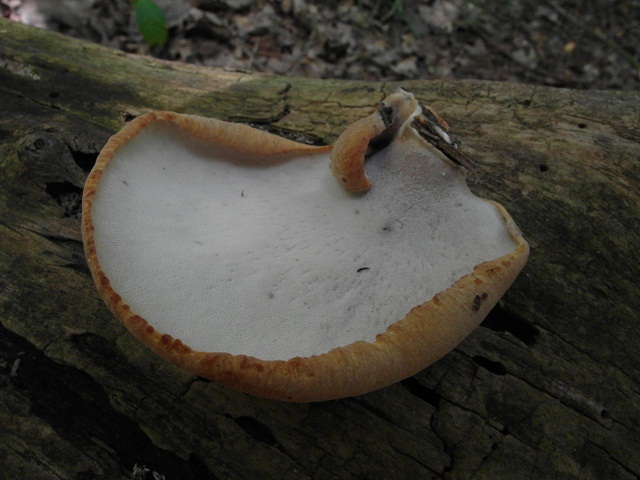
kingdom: Fungi
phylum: Basidiomycota
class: Agaricomycetes
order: Polyporales
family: Polyporaceae
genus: Cerioporus
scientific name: Cerioporus varius
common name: foranderlig stilkporesvamp
